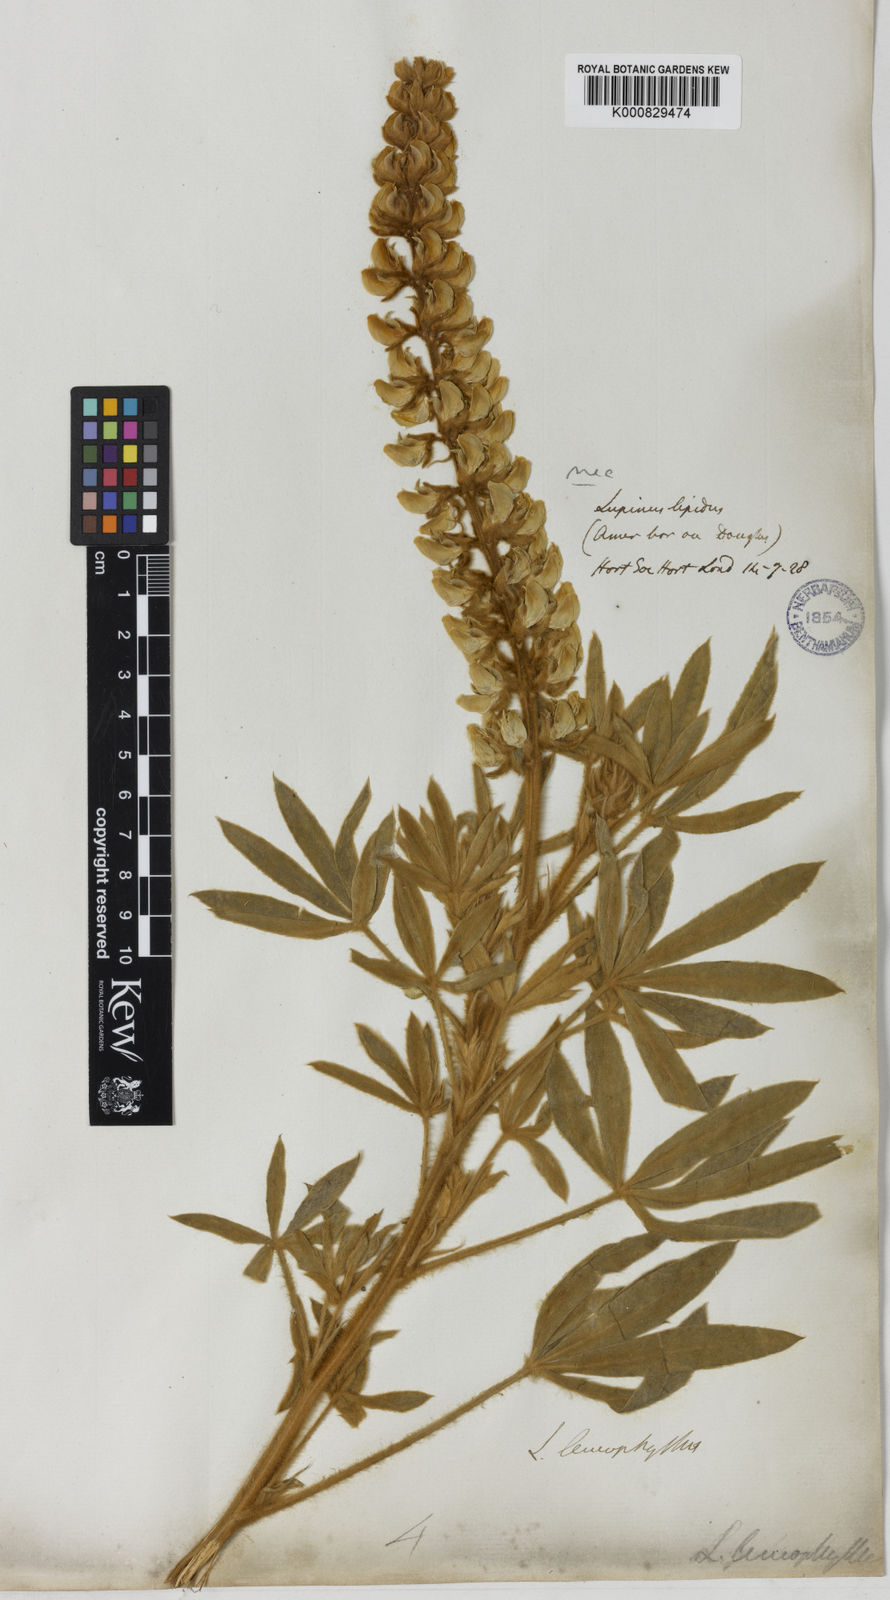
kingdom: Plantae
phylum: Tracheophyta
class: Magnoliopsida
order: Fabales
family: Fabaceae
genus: Lupinus
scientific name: Lupinus leucophyllus
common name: Woolly-leaf lupine
